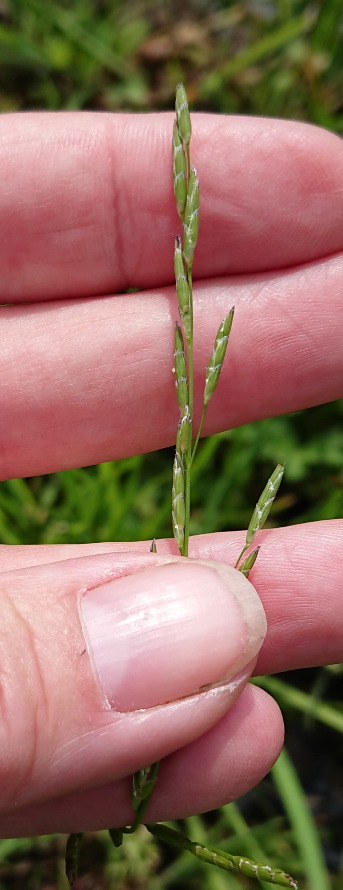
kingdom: Plantae
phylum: Tracheophyta
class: Liliopsida
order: Poales
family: Poaceae
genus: Glyceria
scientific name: Glyceria notata
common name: Butblomstret sødgræs
